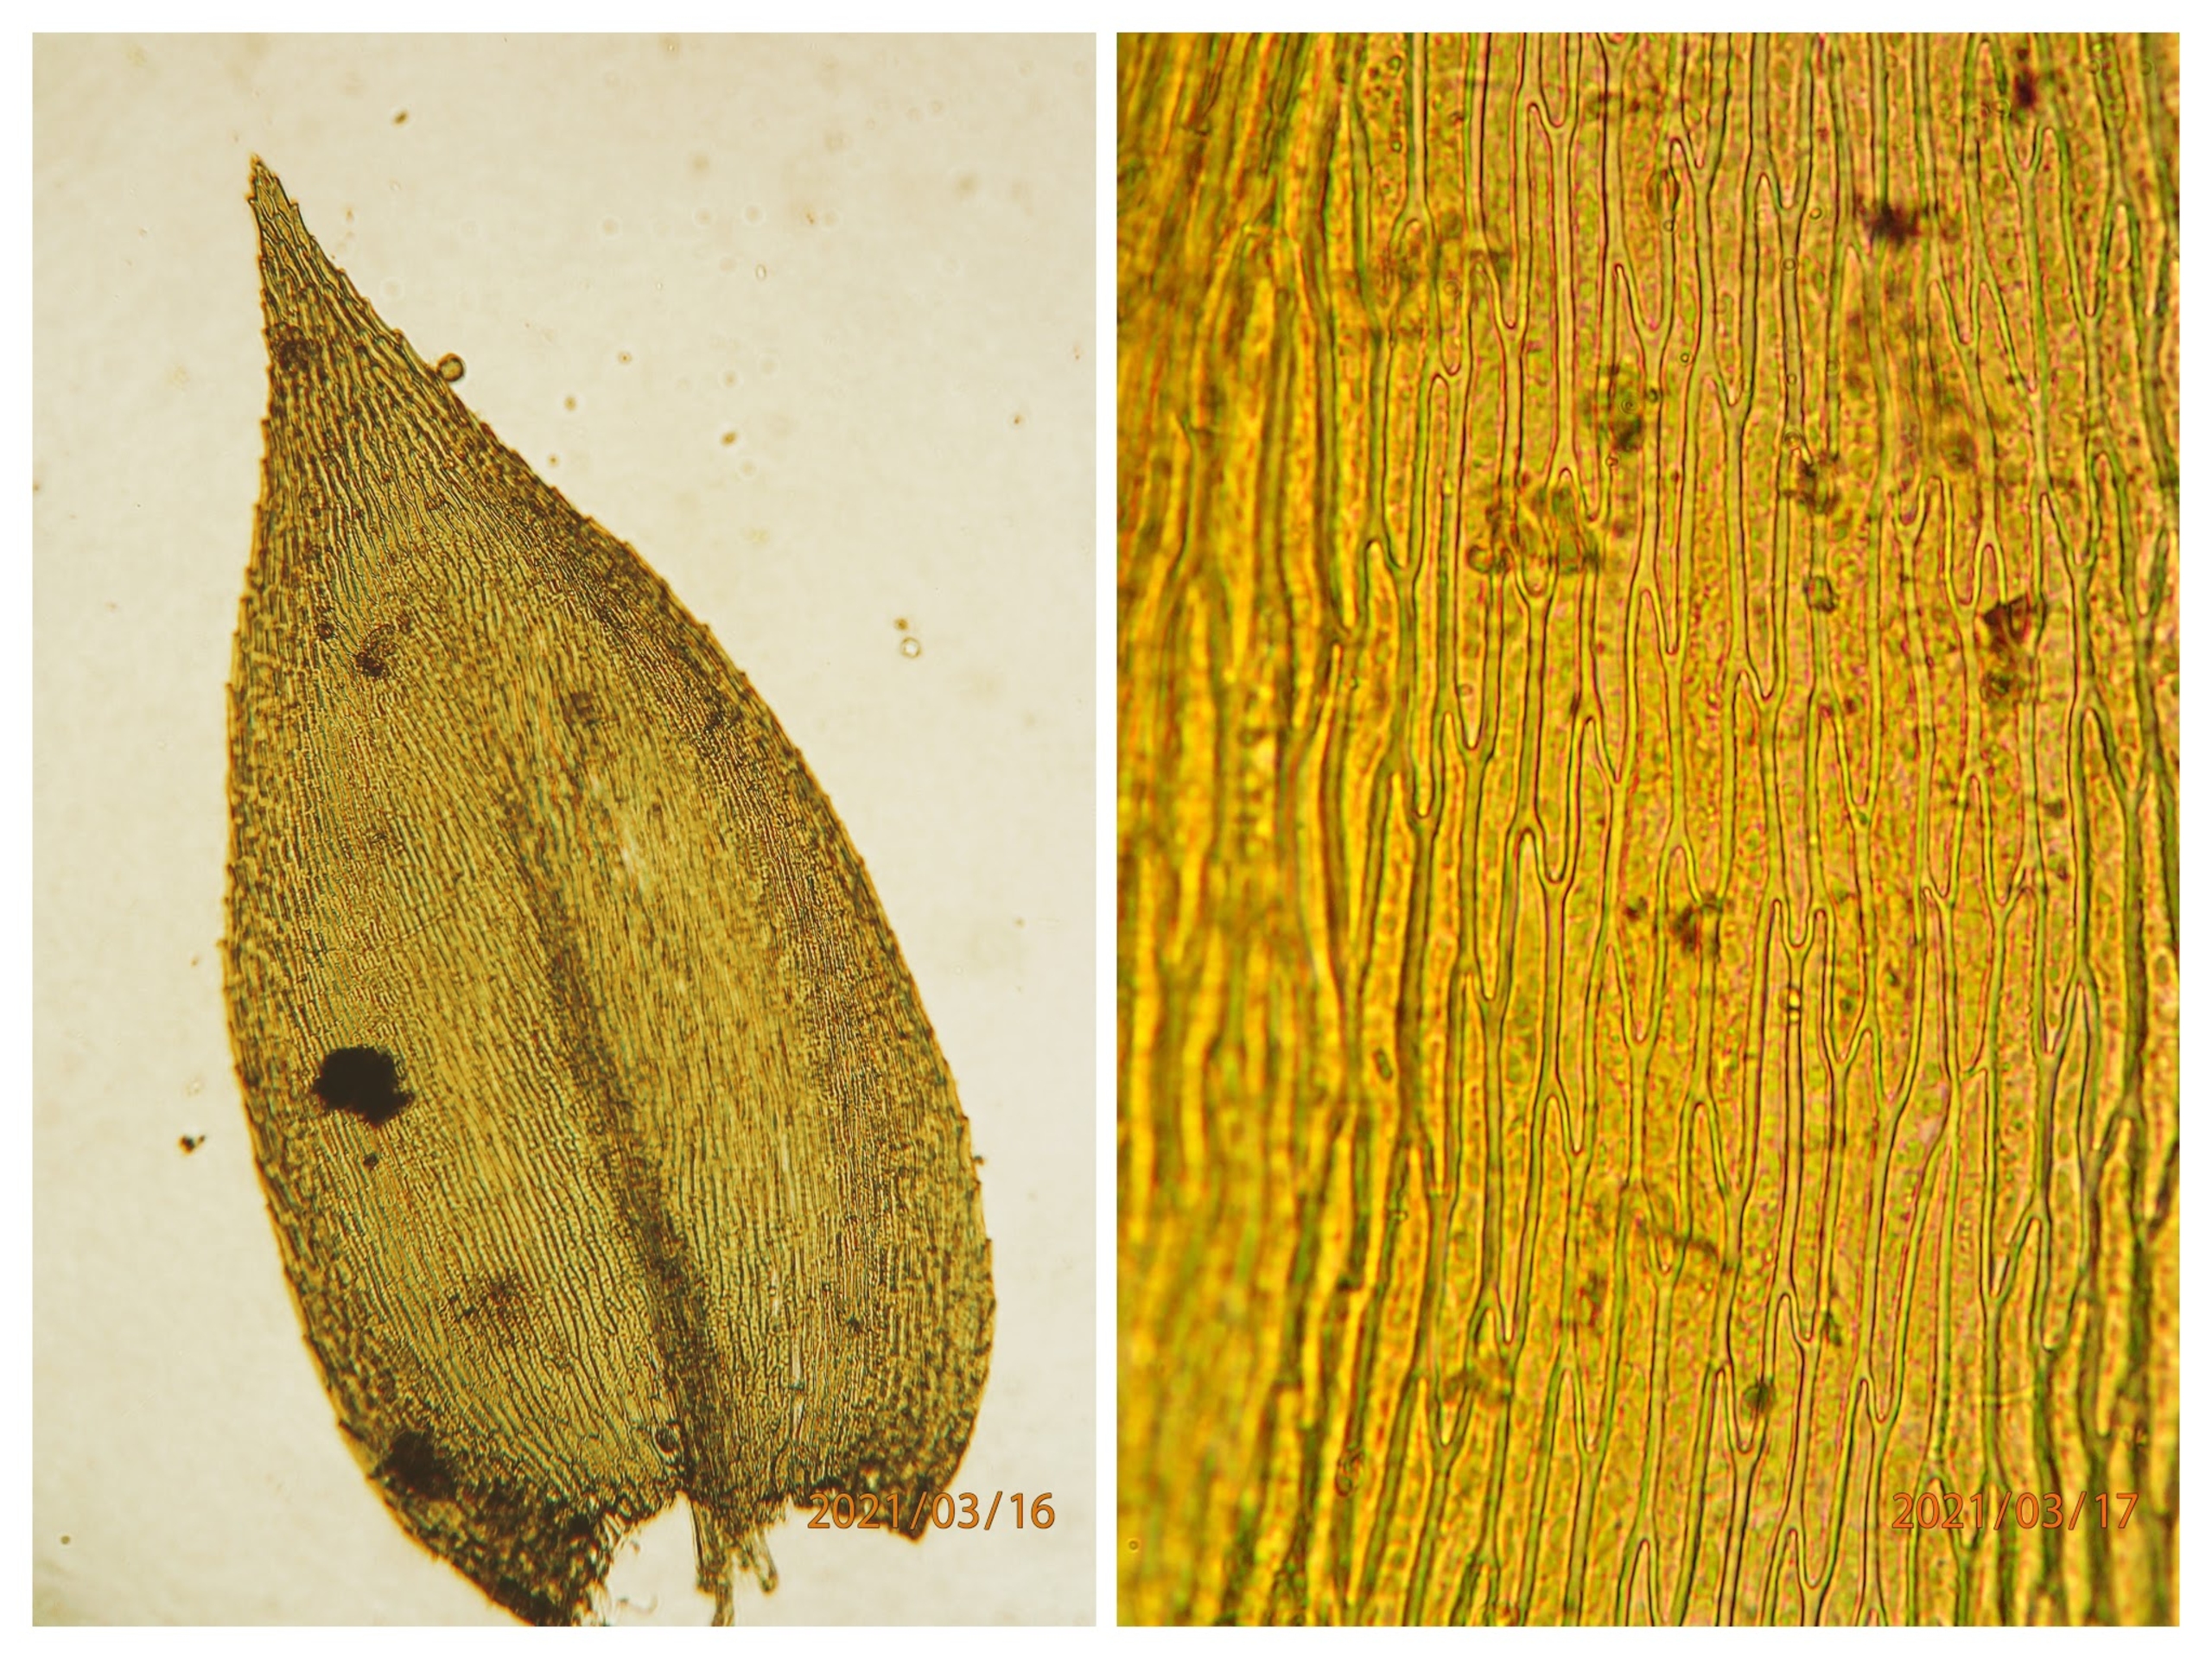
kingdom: Plantae
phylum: Bryophyta
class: Bryopsida
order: Hypnales
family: Brachytheciaceae
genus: Rhynchostegium
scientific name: Rhynchostegium riparioides
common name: Robust strømmos
